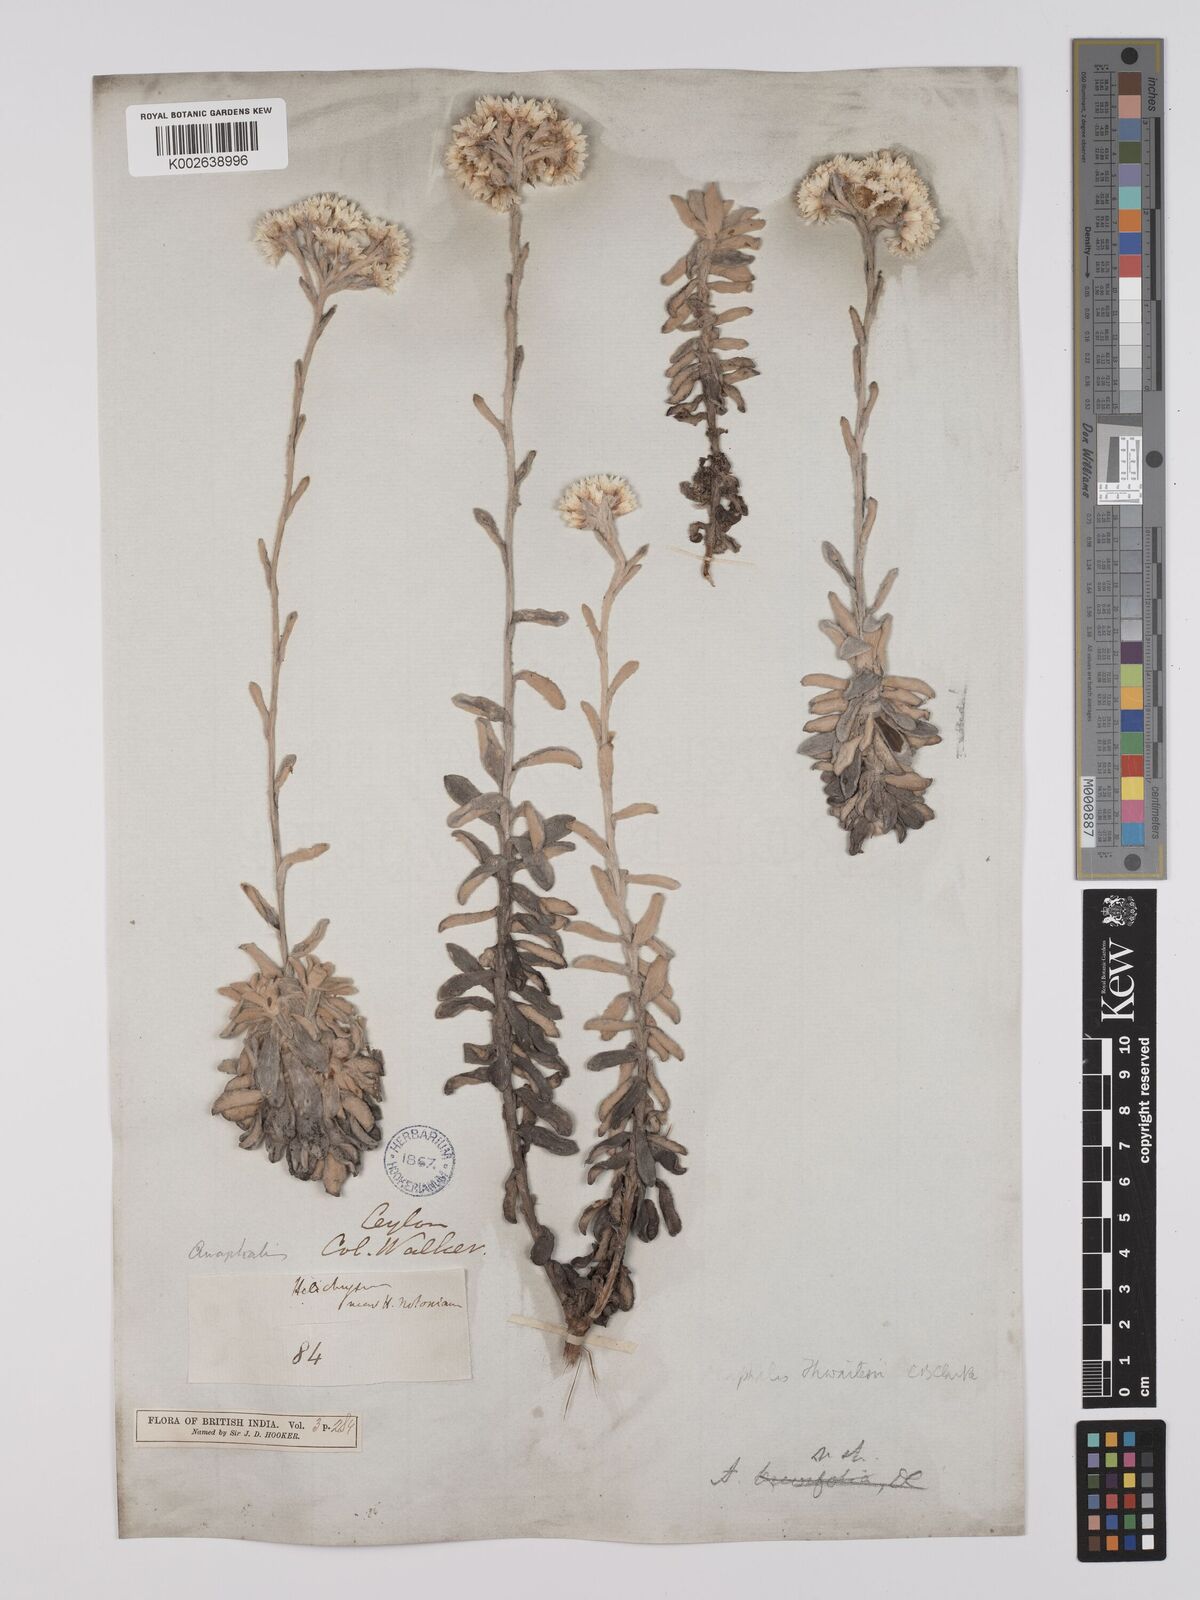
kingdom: Plantae
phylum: Tracheophyta
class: Magnoliopsida
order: Asterales
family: Asteraceae
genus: Anaphalis
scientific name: Anaphalis thwaitesii
